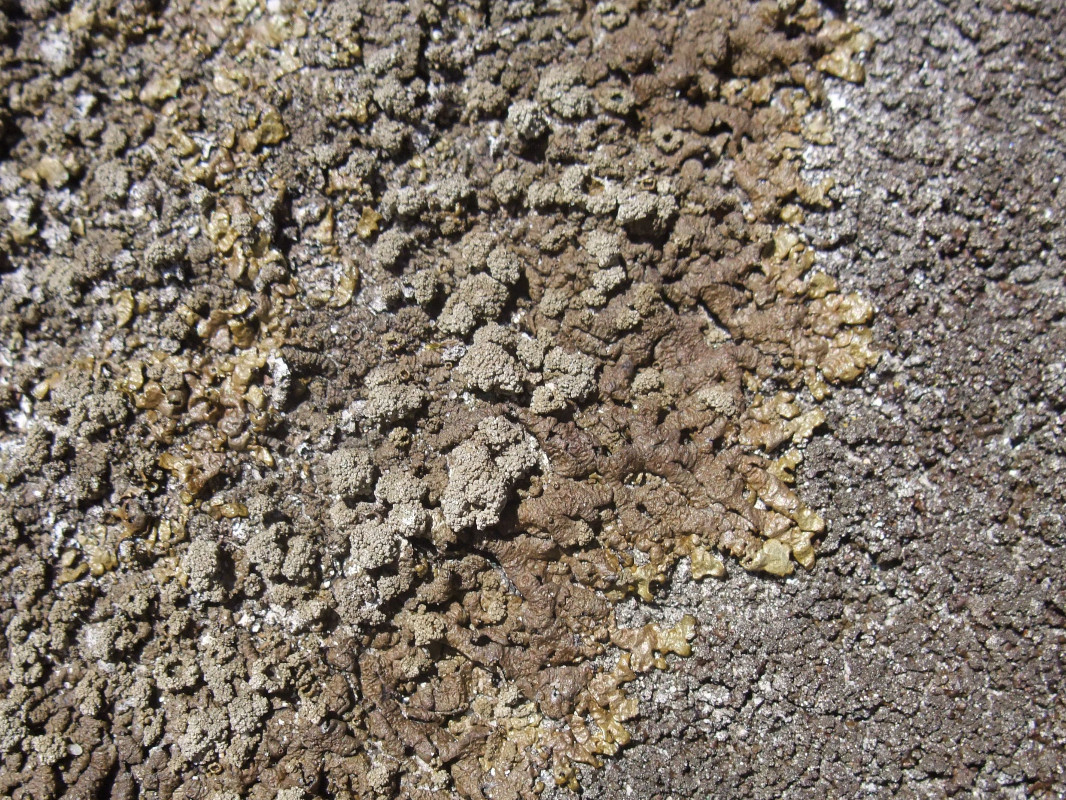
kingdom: Fungi
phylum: Ascomycota
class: Lecanoromycetes
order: Lecanorales
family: Parmeliaceae
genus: Xanthoparmelia
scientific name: Xanthoparmelia loxodes
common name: knudret skållav
